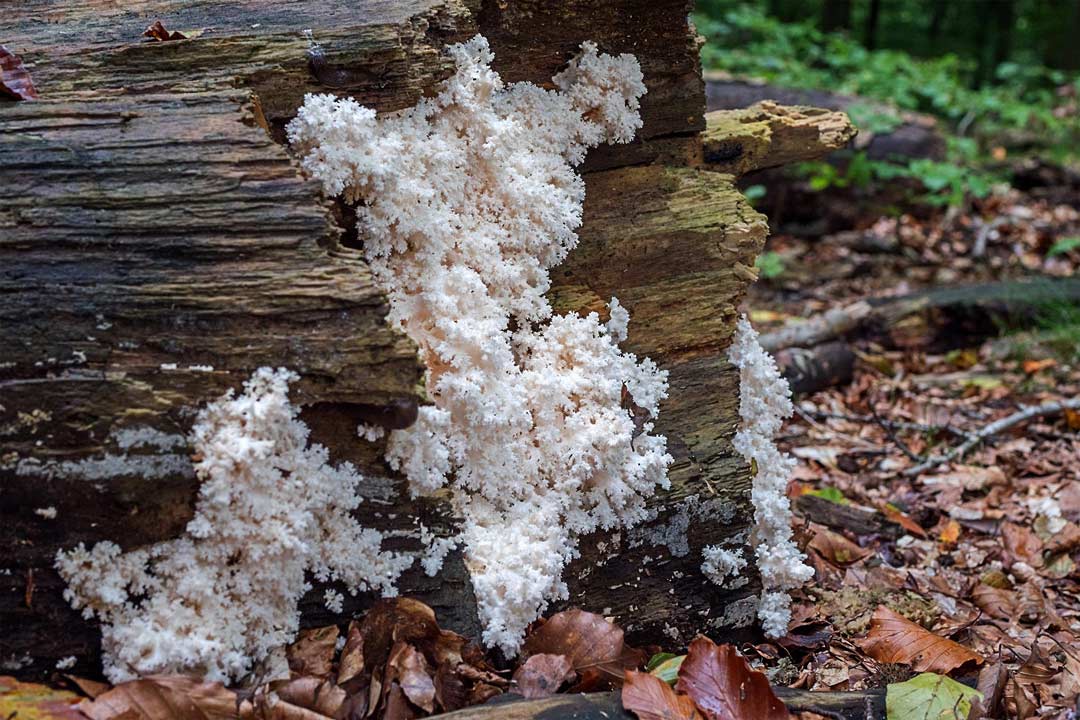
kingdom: Fungi
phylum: Basidiomycota
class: Agaricomycetes
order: Russulales
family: Hericiaceae
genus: Hericium
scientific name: Hericium coralloides
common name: koralpigsvamp
